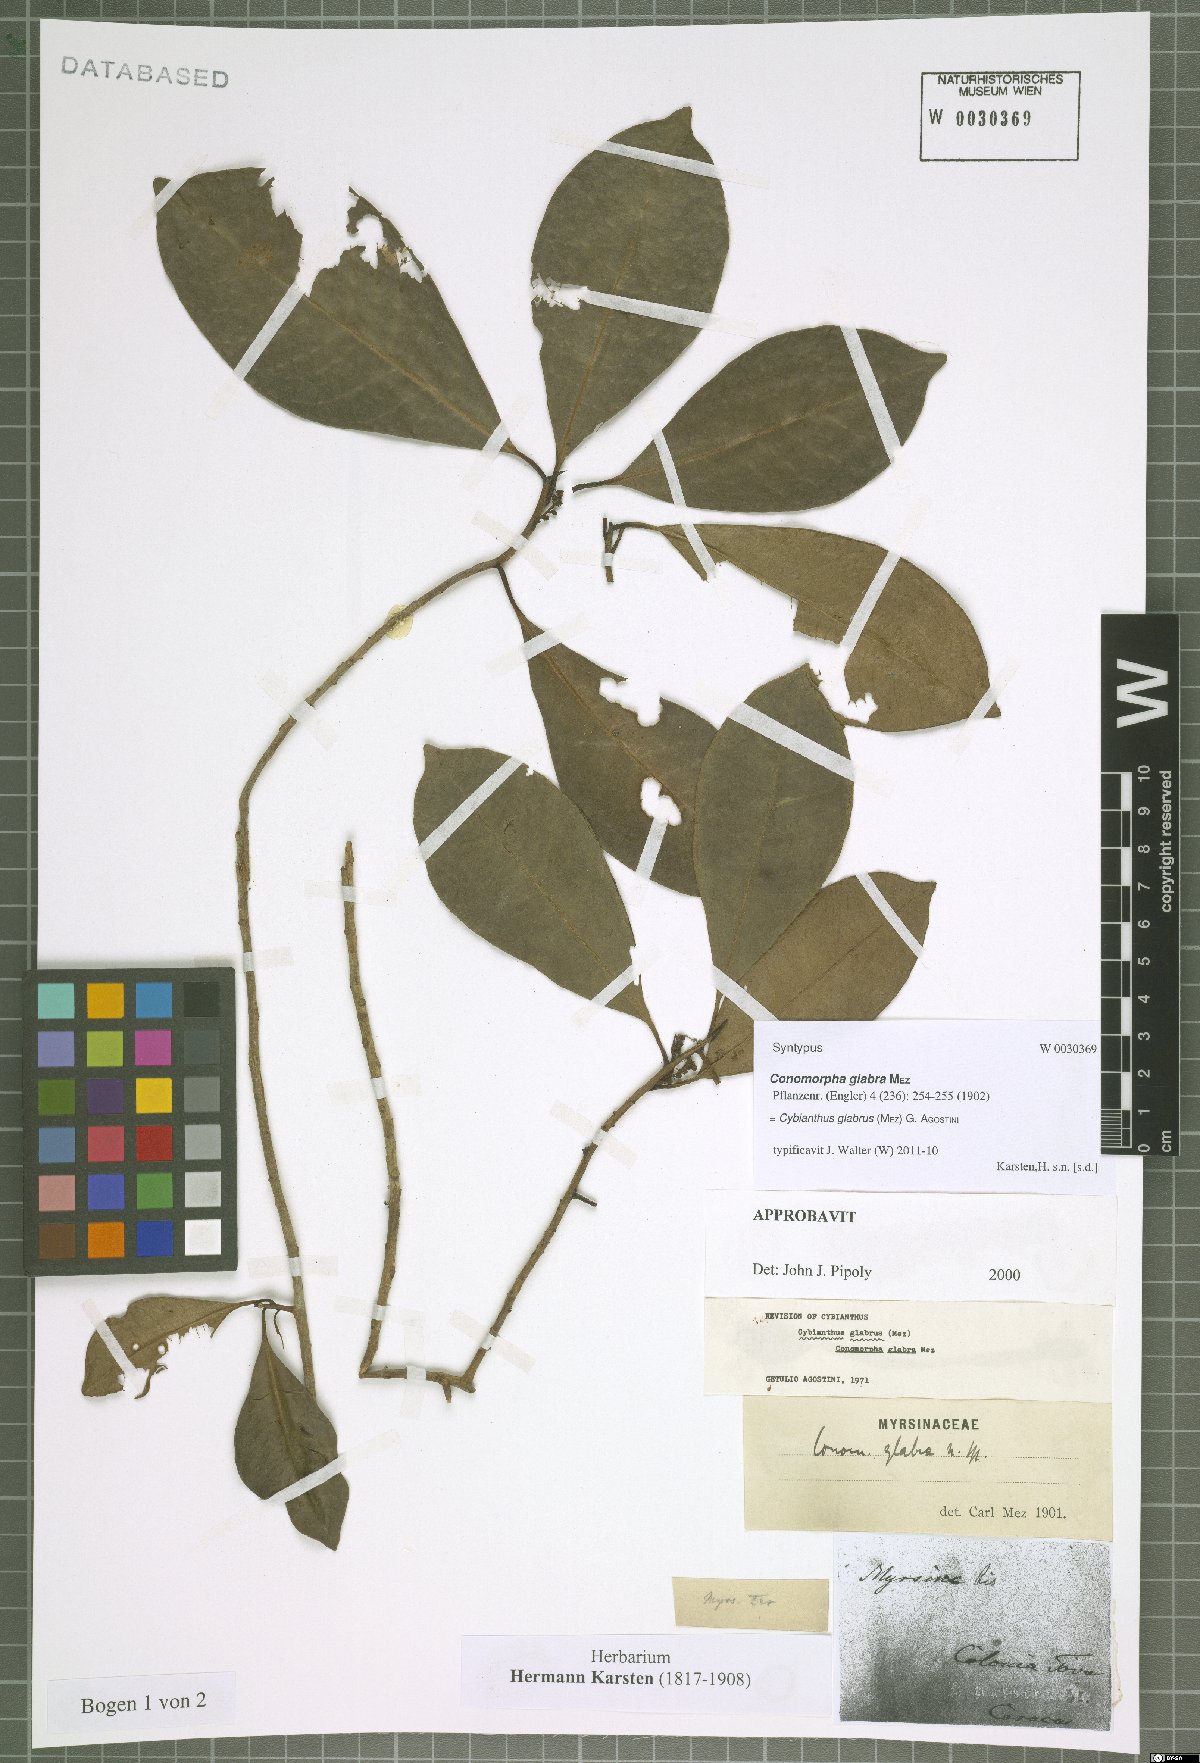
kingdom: Plantae
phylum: Tracheophyta
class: Magnoliopsida
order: Ericales
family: Primulaceae
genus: Cybianthus
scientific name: Cybianthus glabrus
